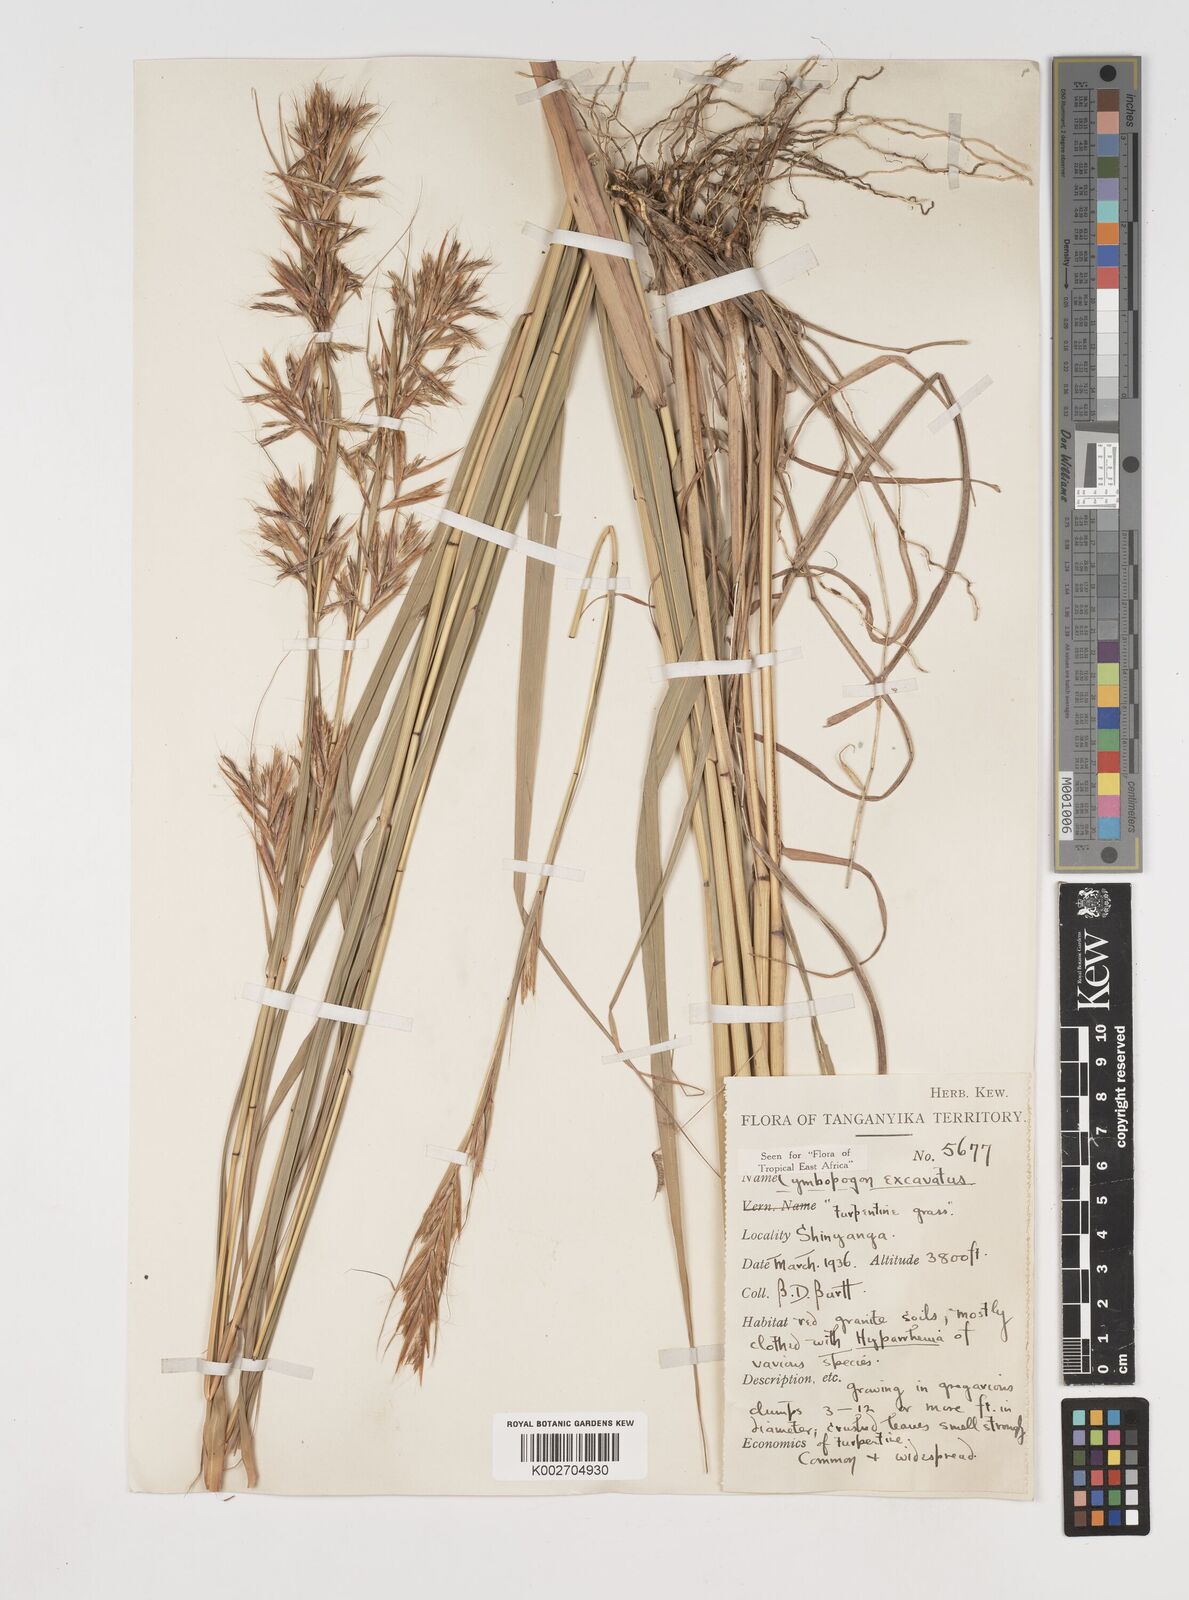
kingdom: Plantae
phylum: Tracheophyta
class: Liliopsida
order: Poales
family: Poaceae
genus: Cymbopogon
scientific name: Cymbopogon caesius
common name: Kachi grass
